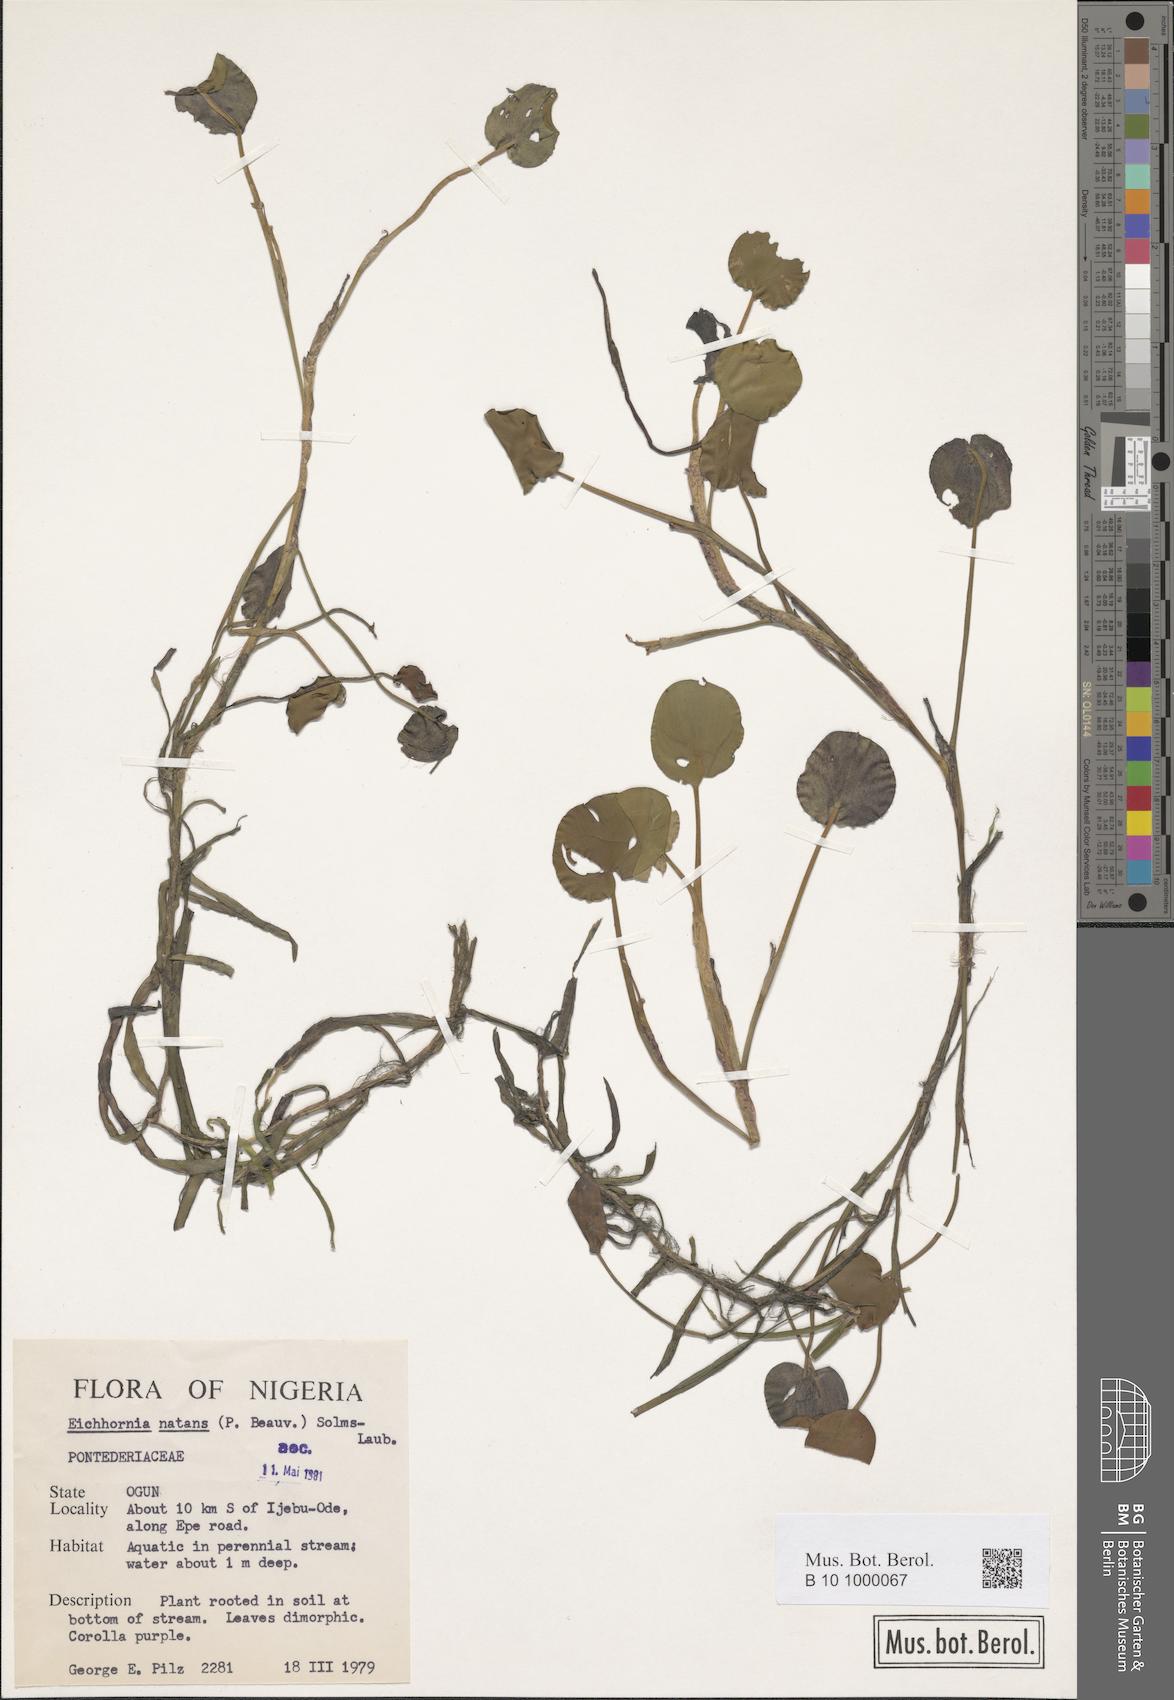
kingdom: Plantae
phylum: Tracheophyta
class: Liliopsida
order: Commelinales
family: Pontederiaceae
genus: Pontederia
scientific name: Pontederia natans
